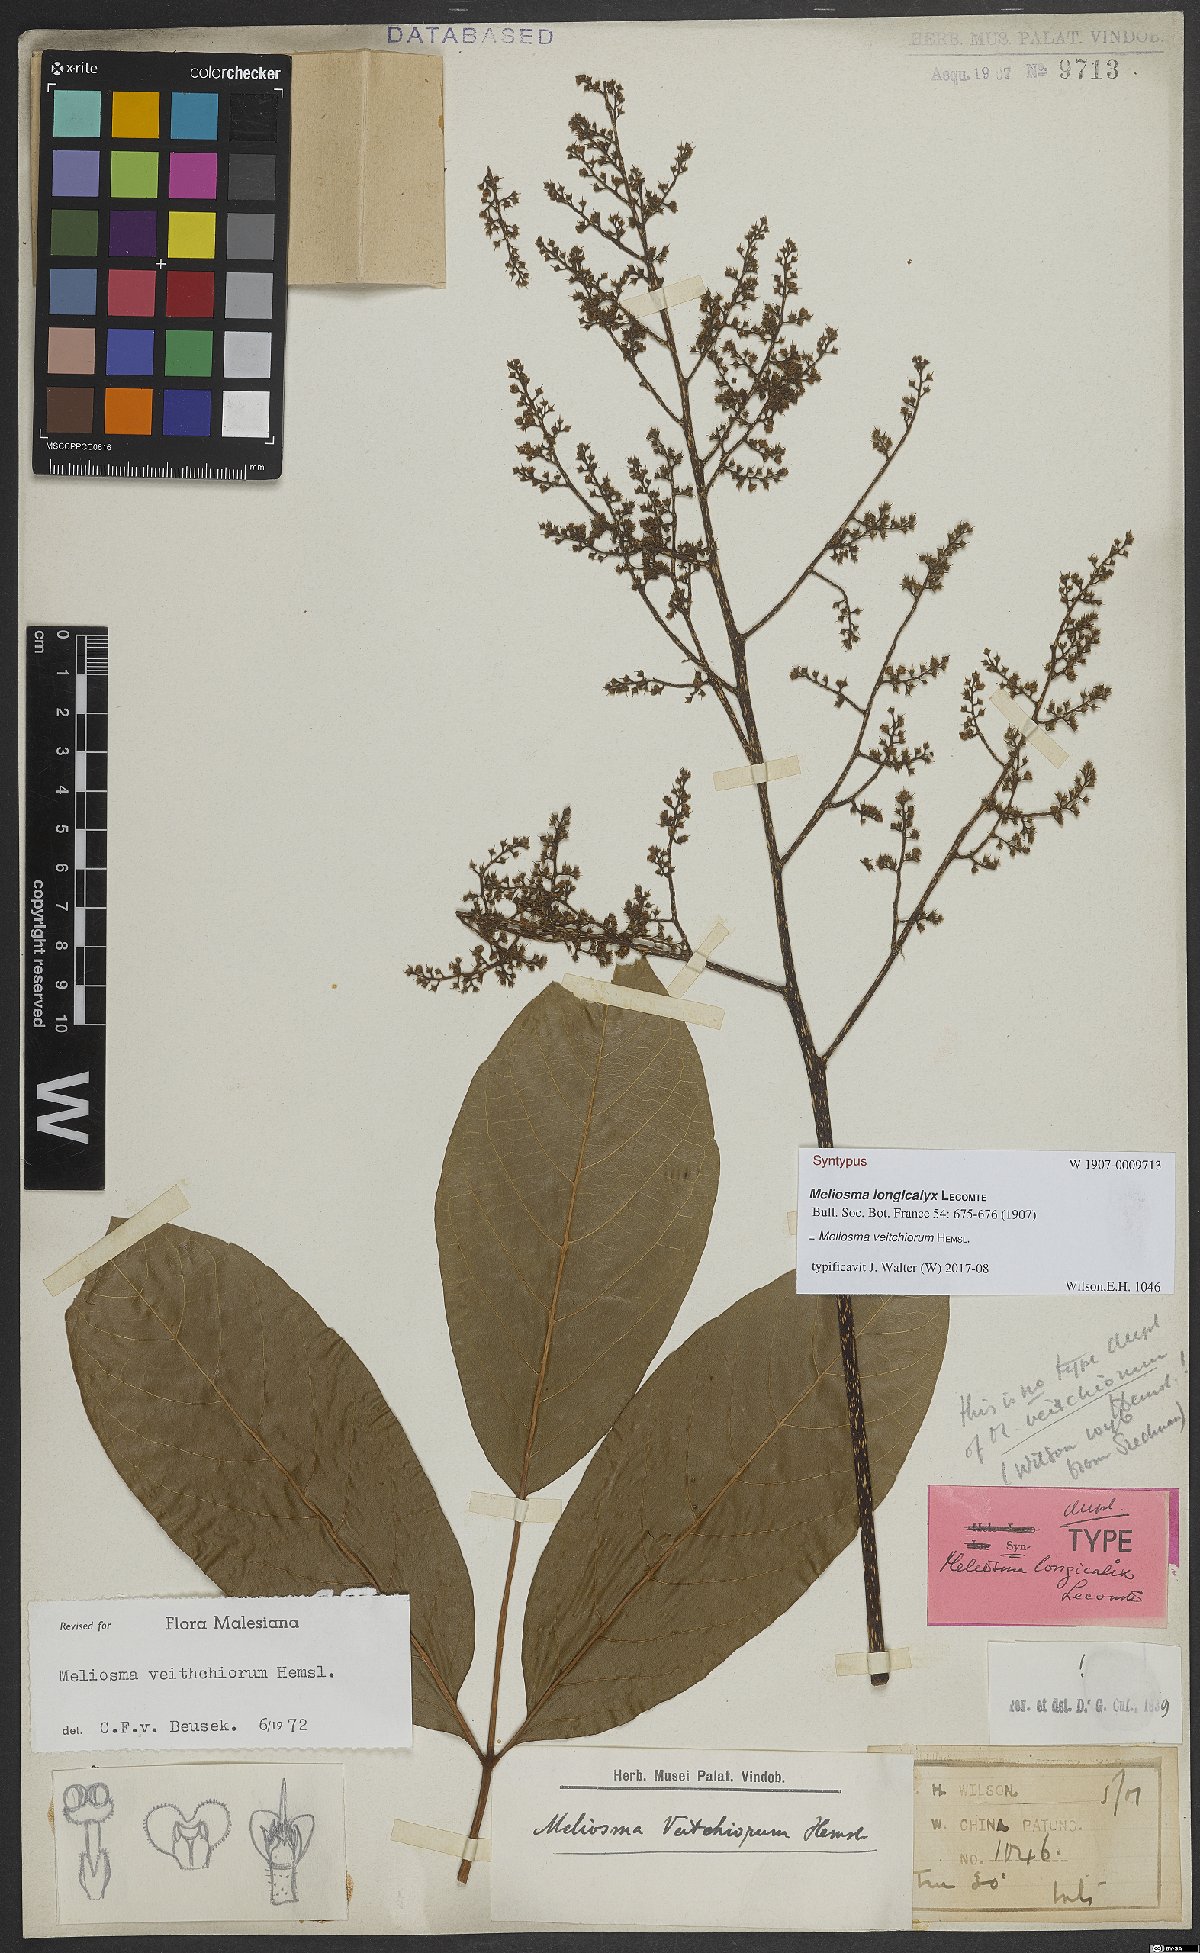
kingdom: Plantae
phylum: Tracheophyta
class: Magnoliopsida
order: Proteales
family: Sabiaceae
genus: Meliosma
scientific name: Meliosma veitchiorum
